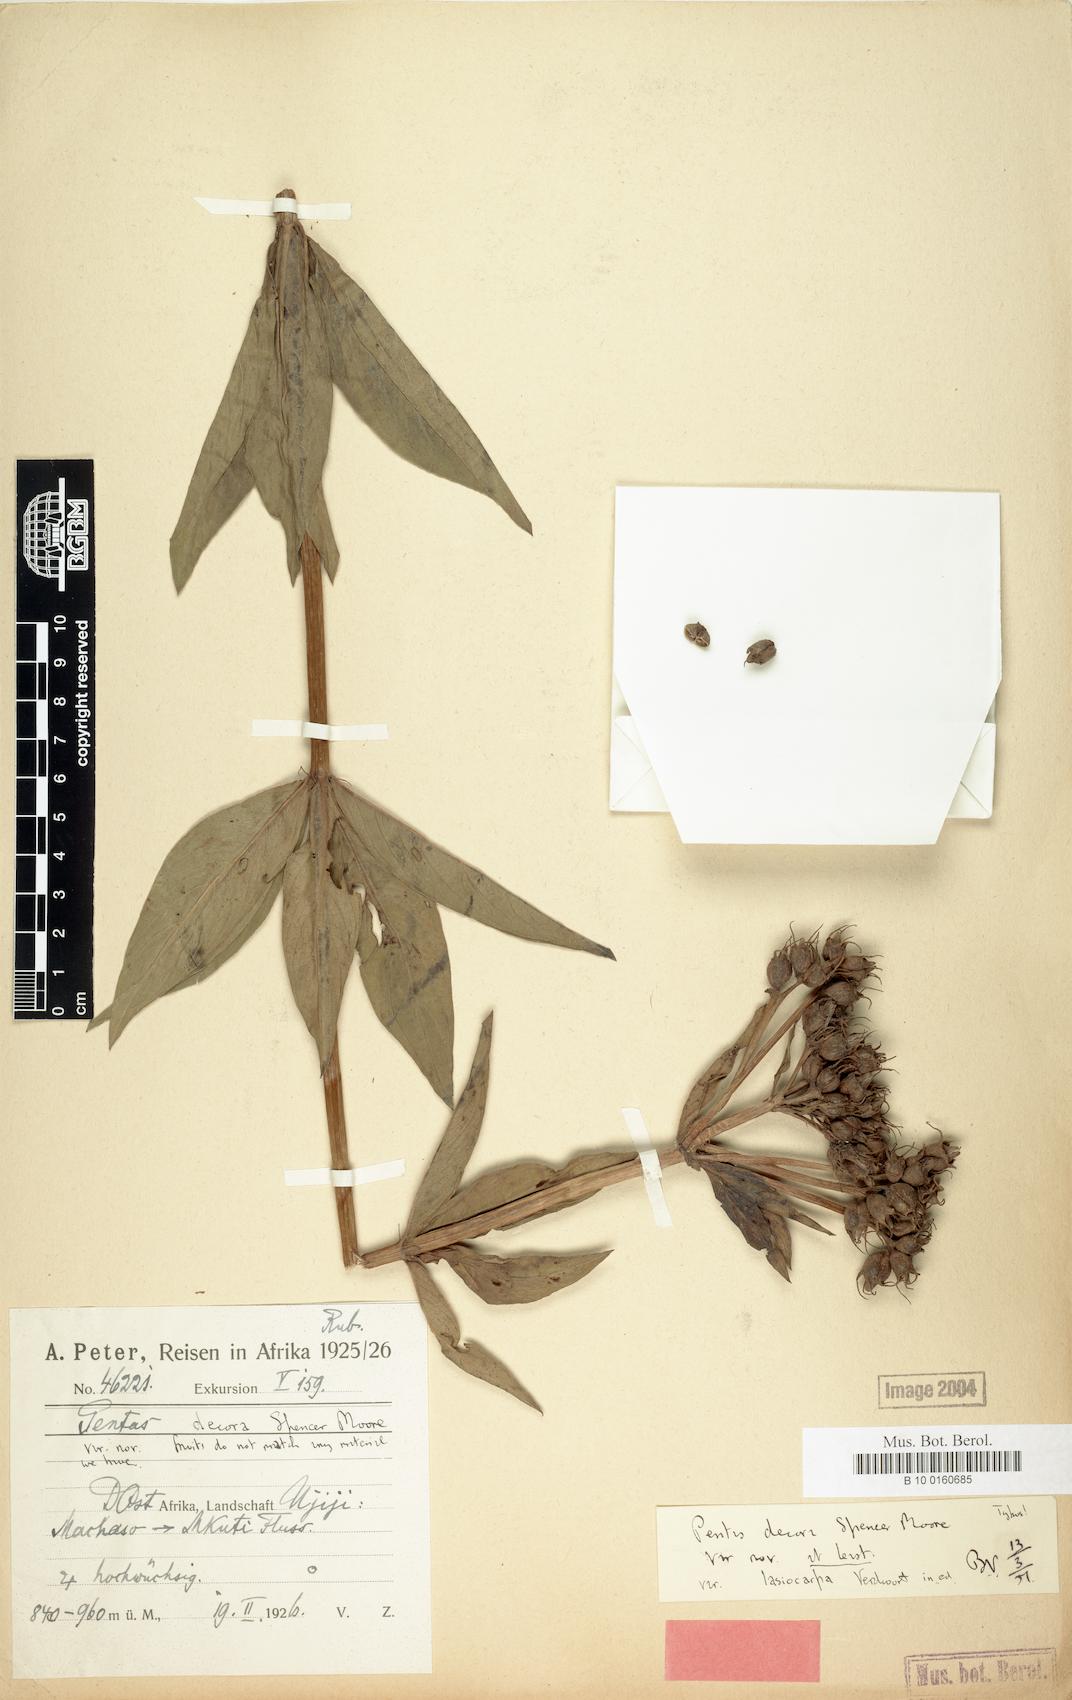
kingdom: Plantae
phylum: Tracheophyta
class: Magnoliopsida
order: Gentianales
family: Rubiaceae
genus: Dolichopentas
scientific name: Dolichopentas decora
